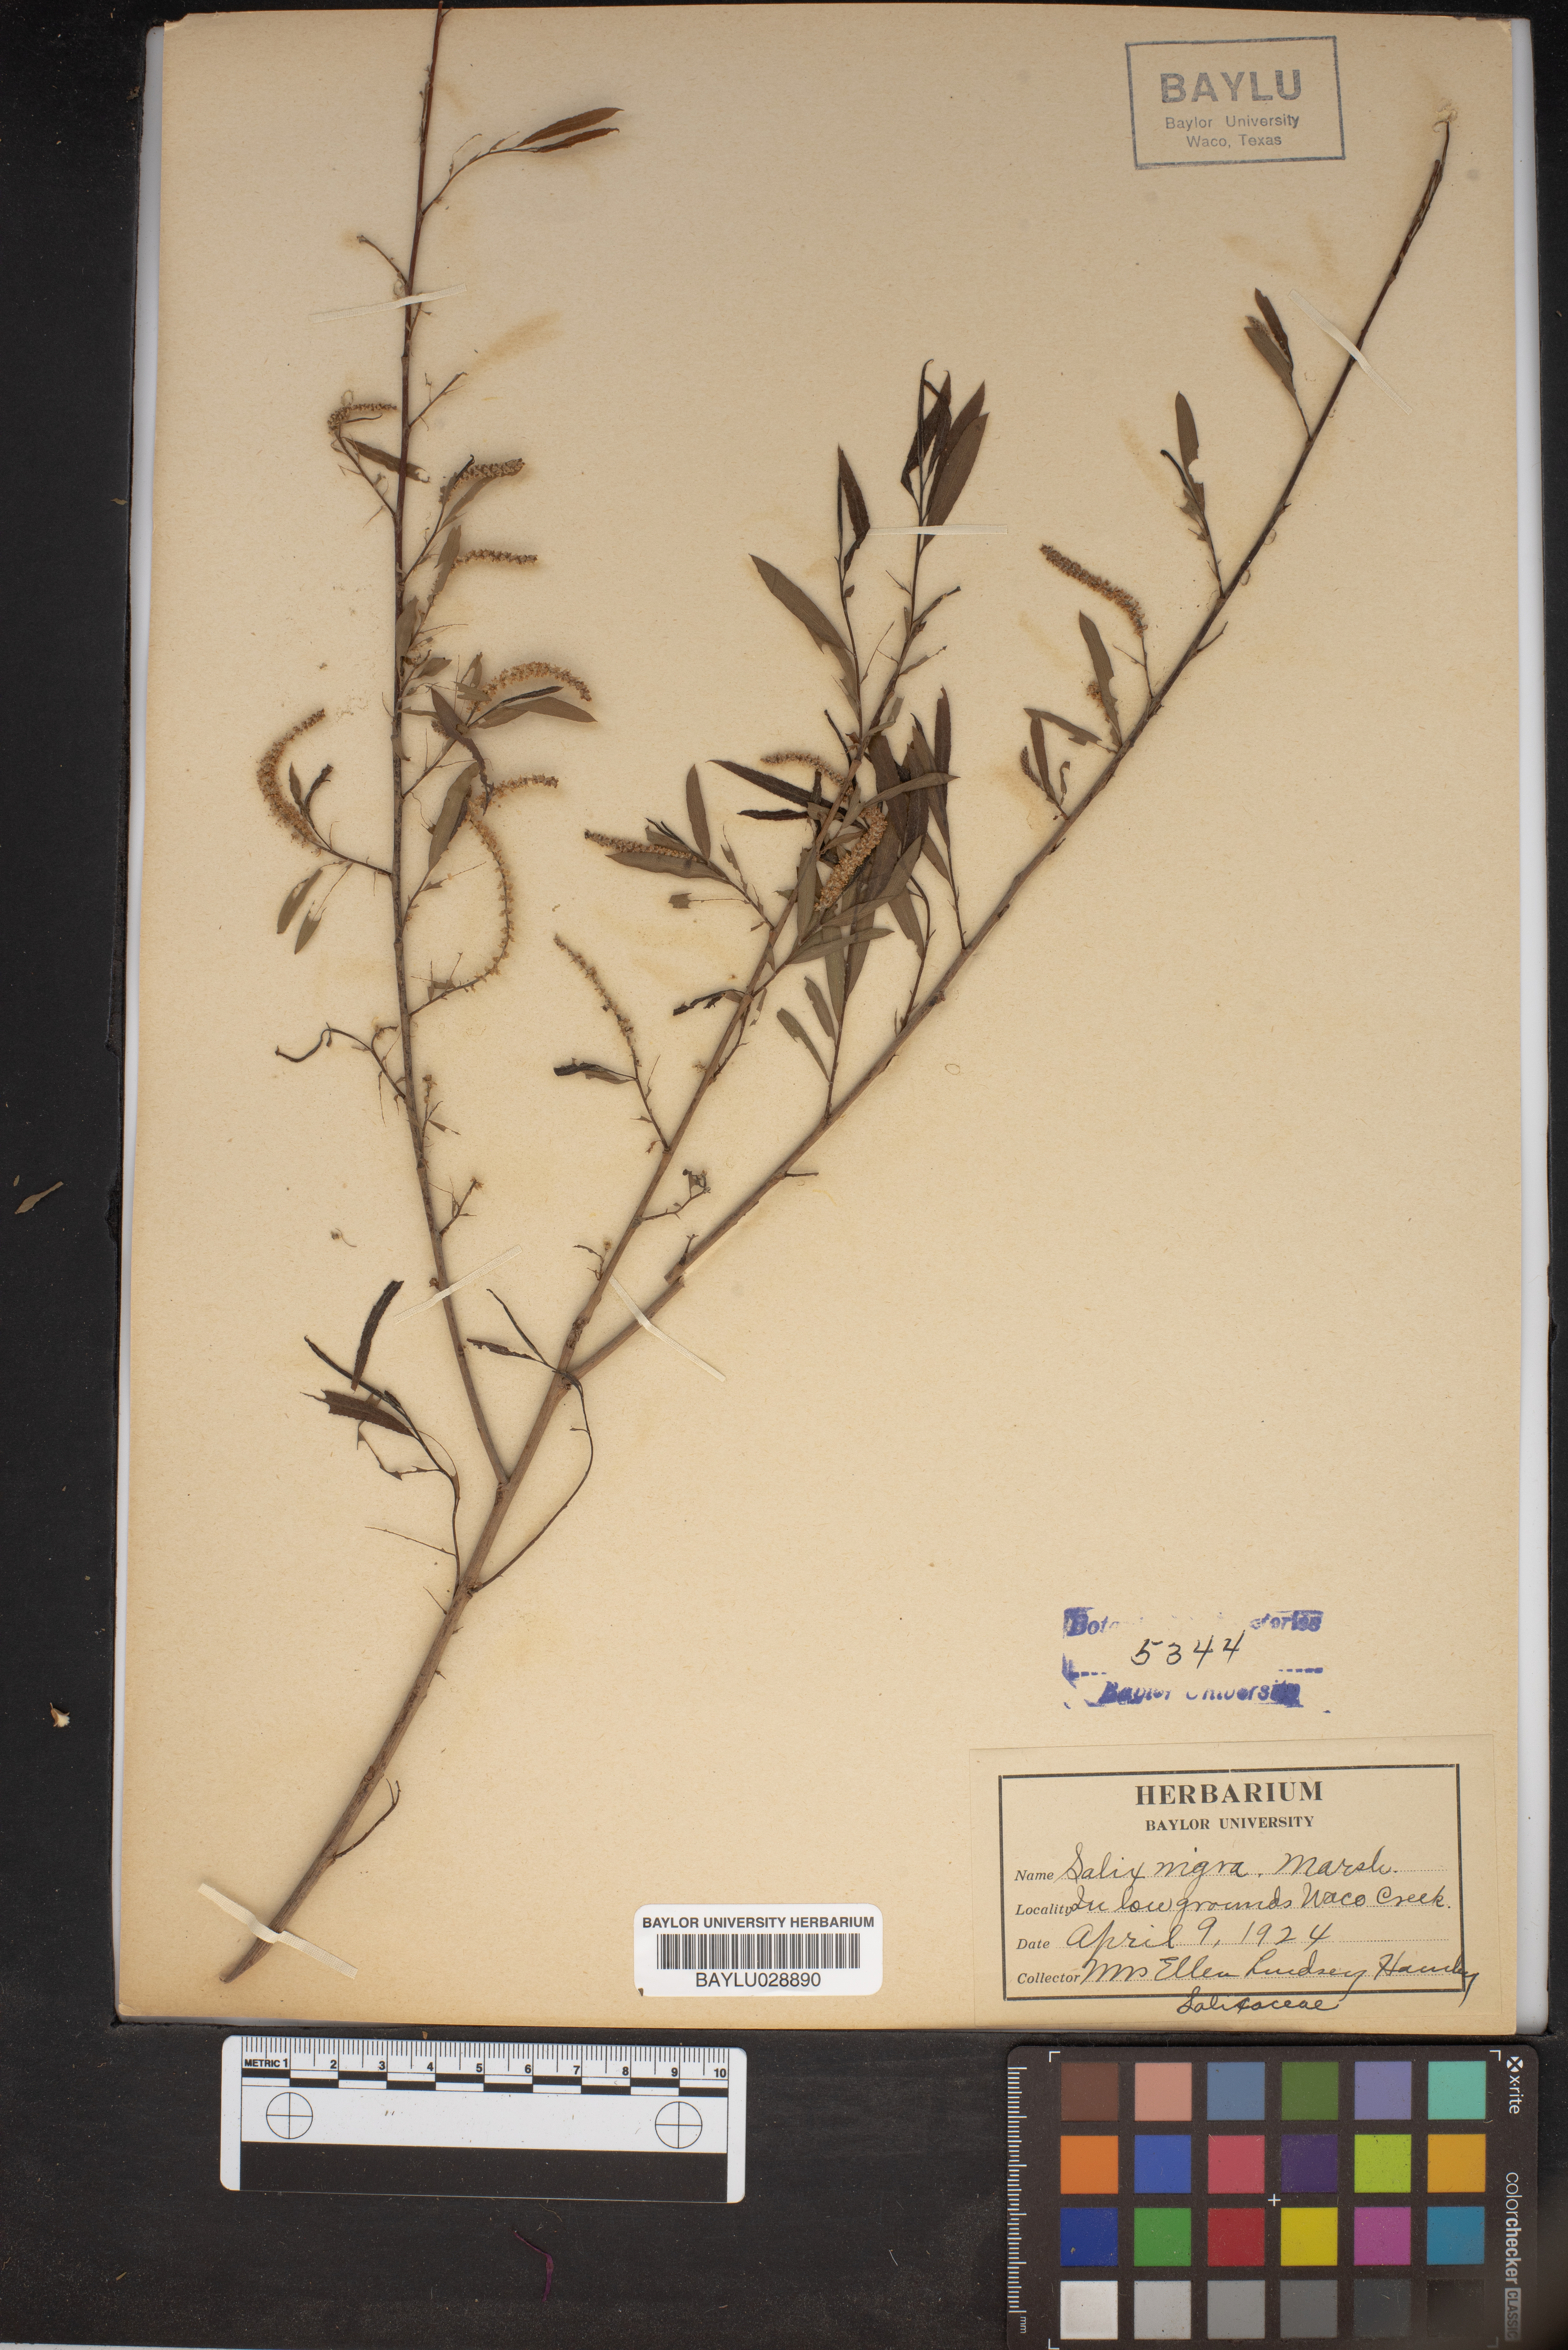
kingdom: Plantae
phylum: Tracheophyta
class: Magnoliopsida
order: Malpighiales
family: Salicaceae
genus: Salix
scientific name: Salix nigra
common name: Black willow
